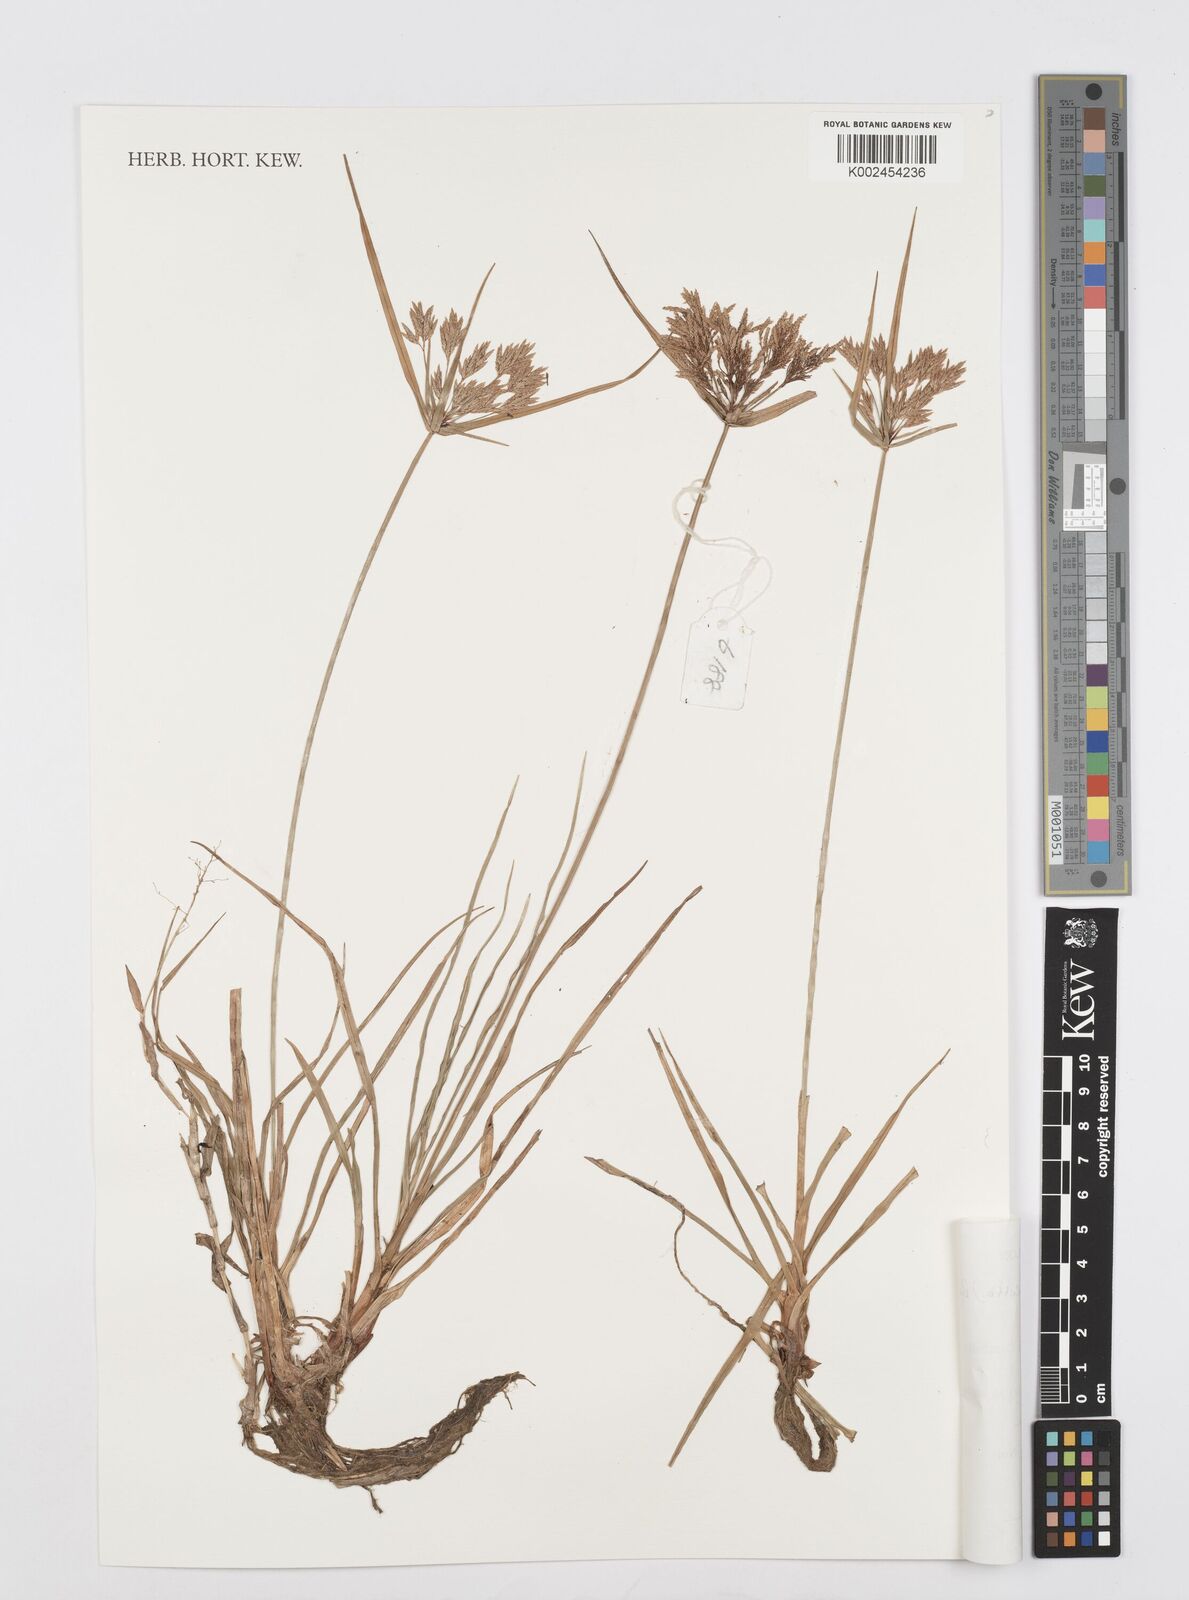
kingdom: Plantae
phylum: Tracheophyta
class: Liliopsida
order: Poales
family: Cyperaceae
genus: Cyperus
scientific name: Cyperus polystachyos
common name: Bunchy flat sedge
